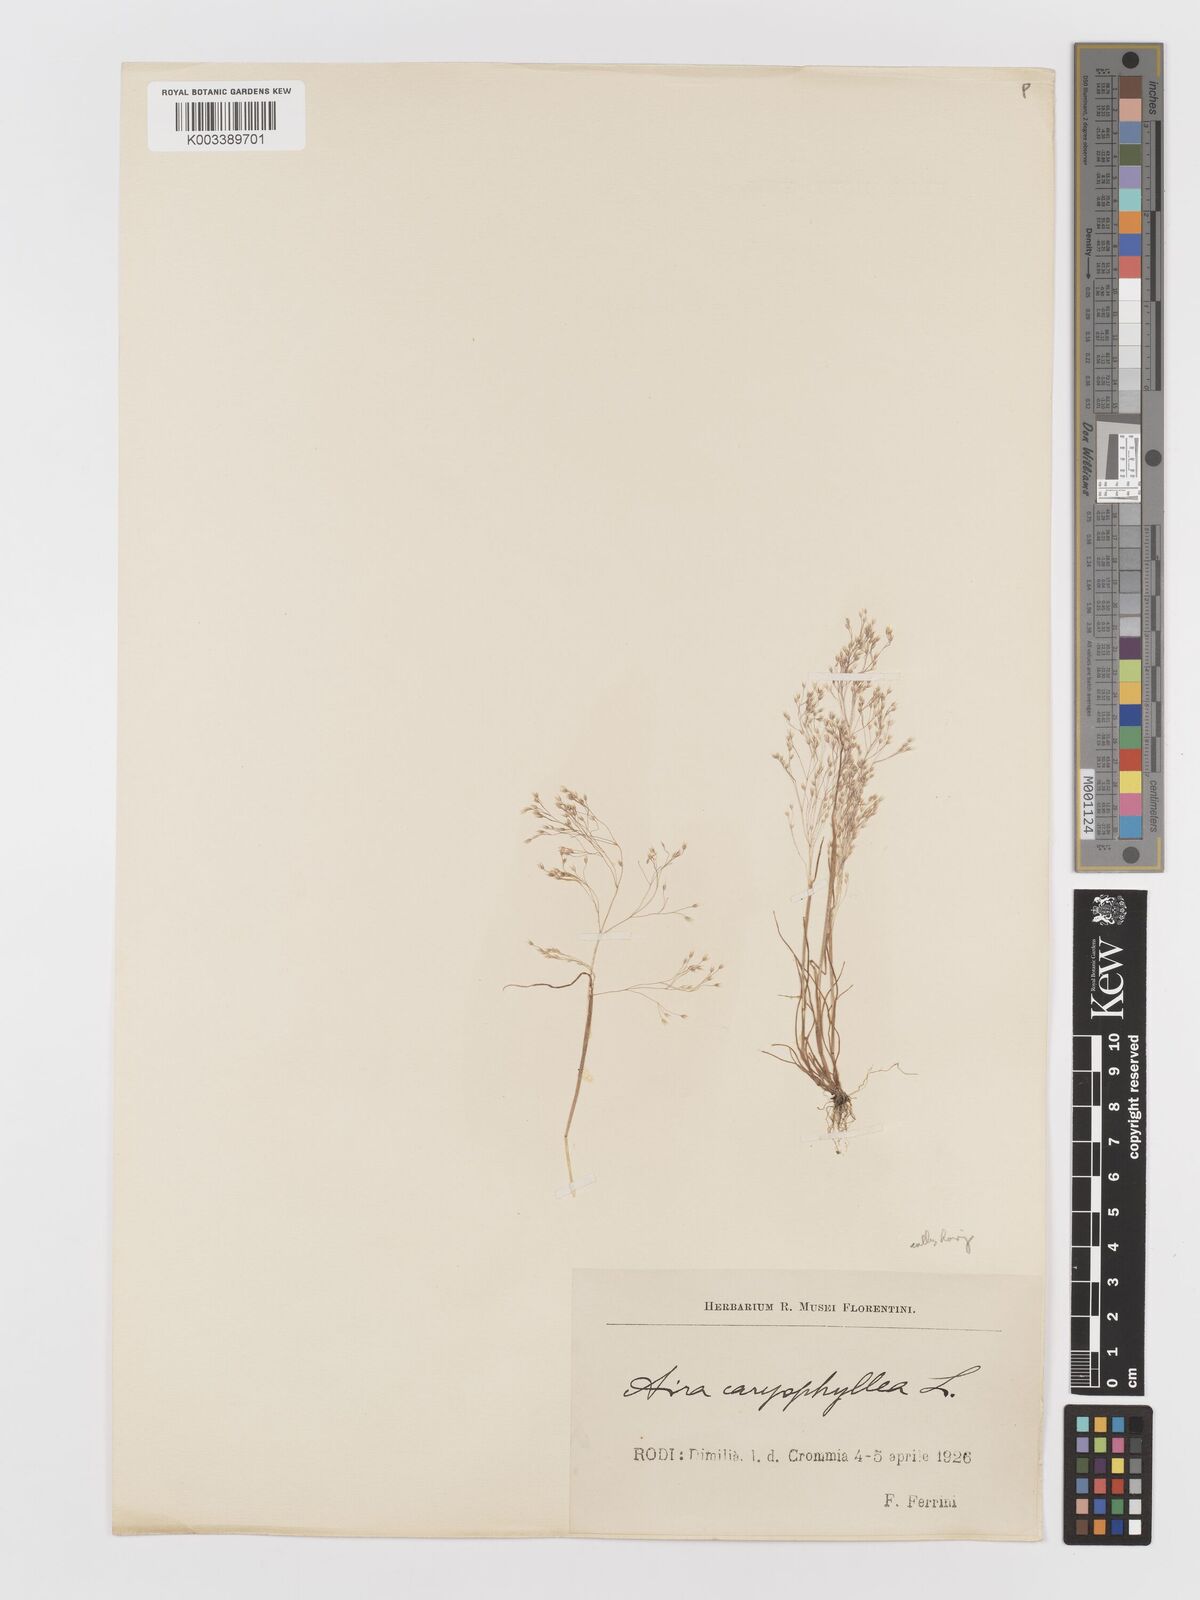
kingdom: Plantae
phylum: Tracheophyta
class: Liliopsida
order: Poales
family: Poaceae
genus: Aira
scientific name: Aira caryophyllea
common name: Silver hairgrass
